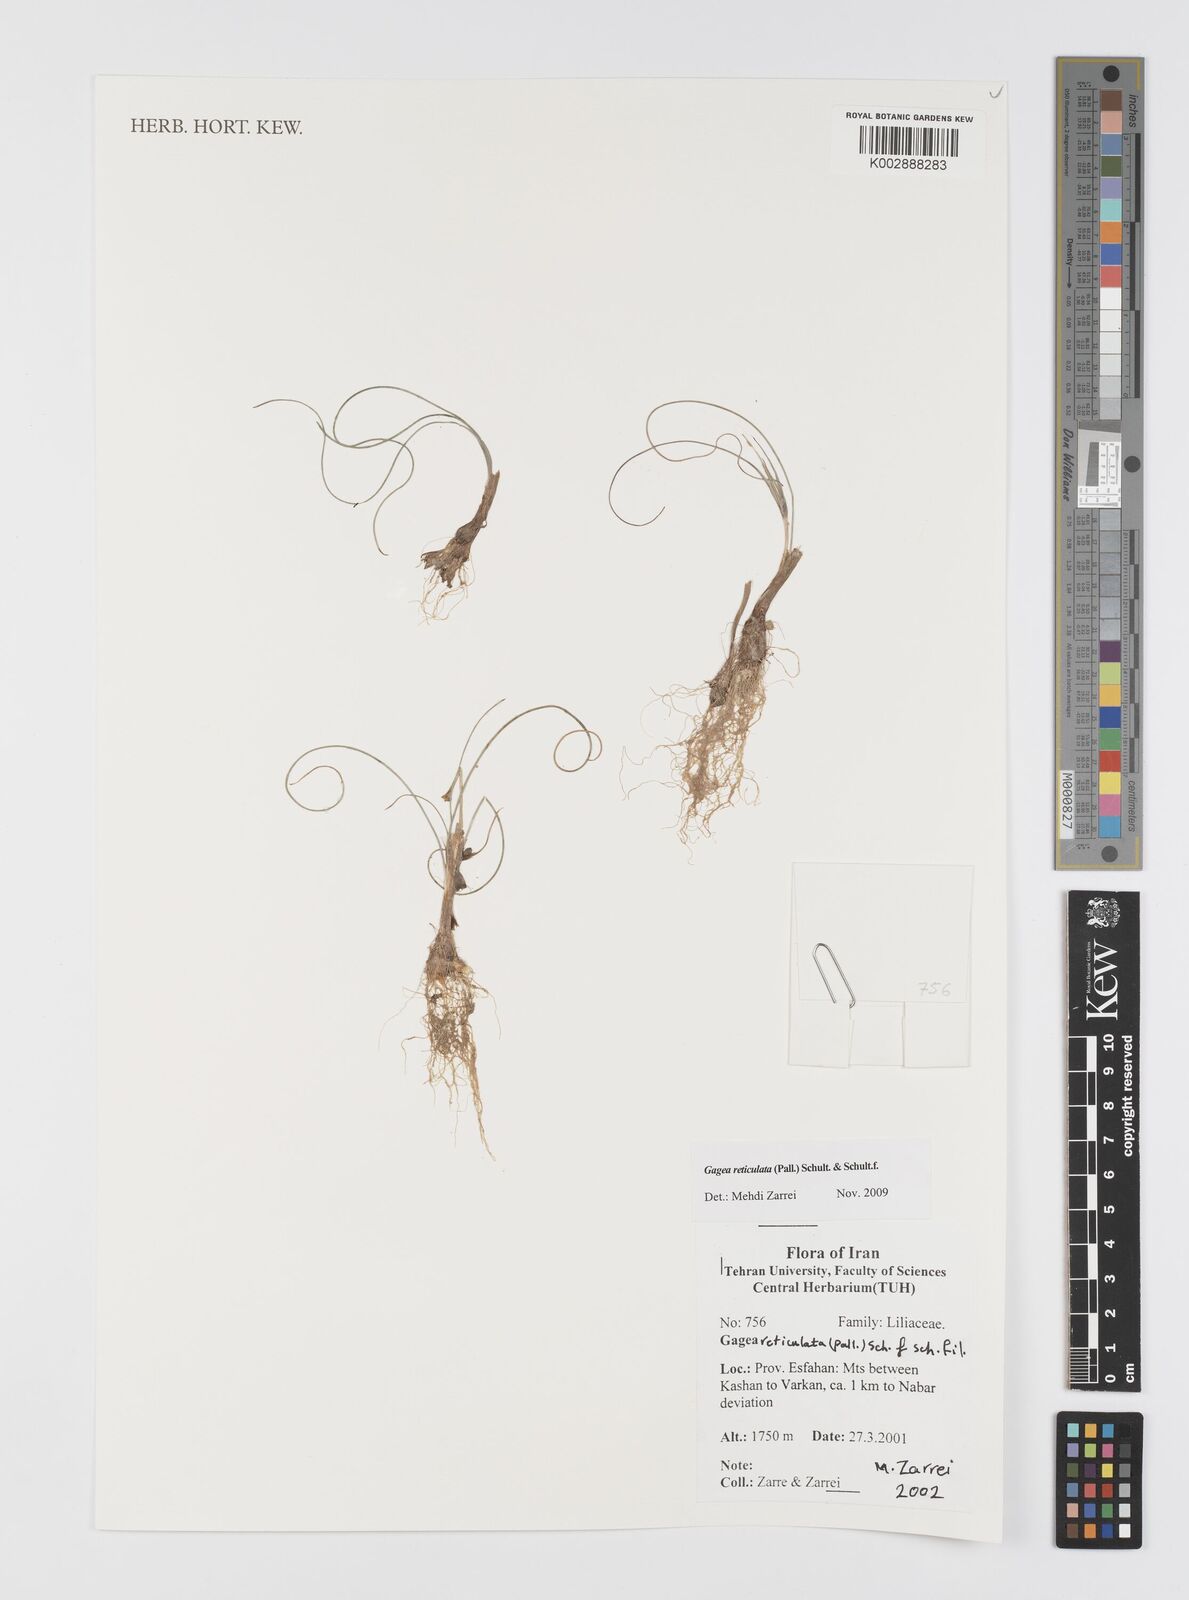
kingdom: Plantae
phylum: Tracheophyta
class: Liliopsida
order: Liliales
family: Liliaceae
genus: Gagea
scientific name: Gagea reticulata
